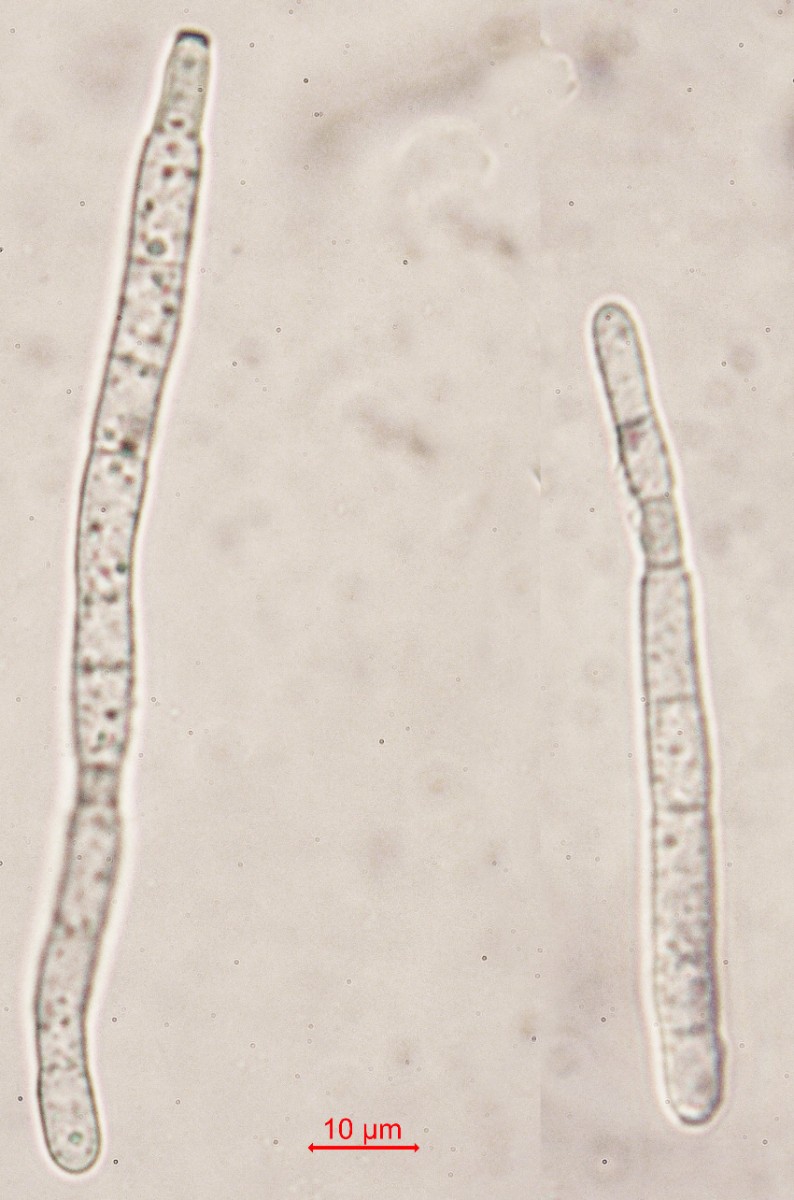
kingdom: Fungi
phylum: Ascomycota
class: Dothideomycetes
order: Mycosphaerellales
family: Mycosphaerellaceae
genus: Cercospora
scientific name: Cercospora bizzozeriana
